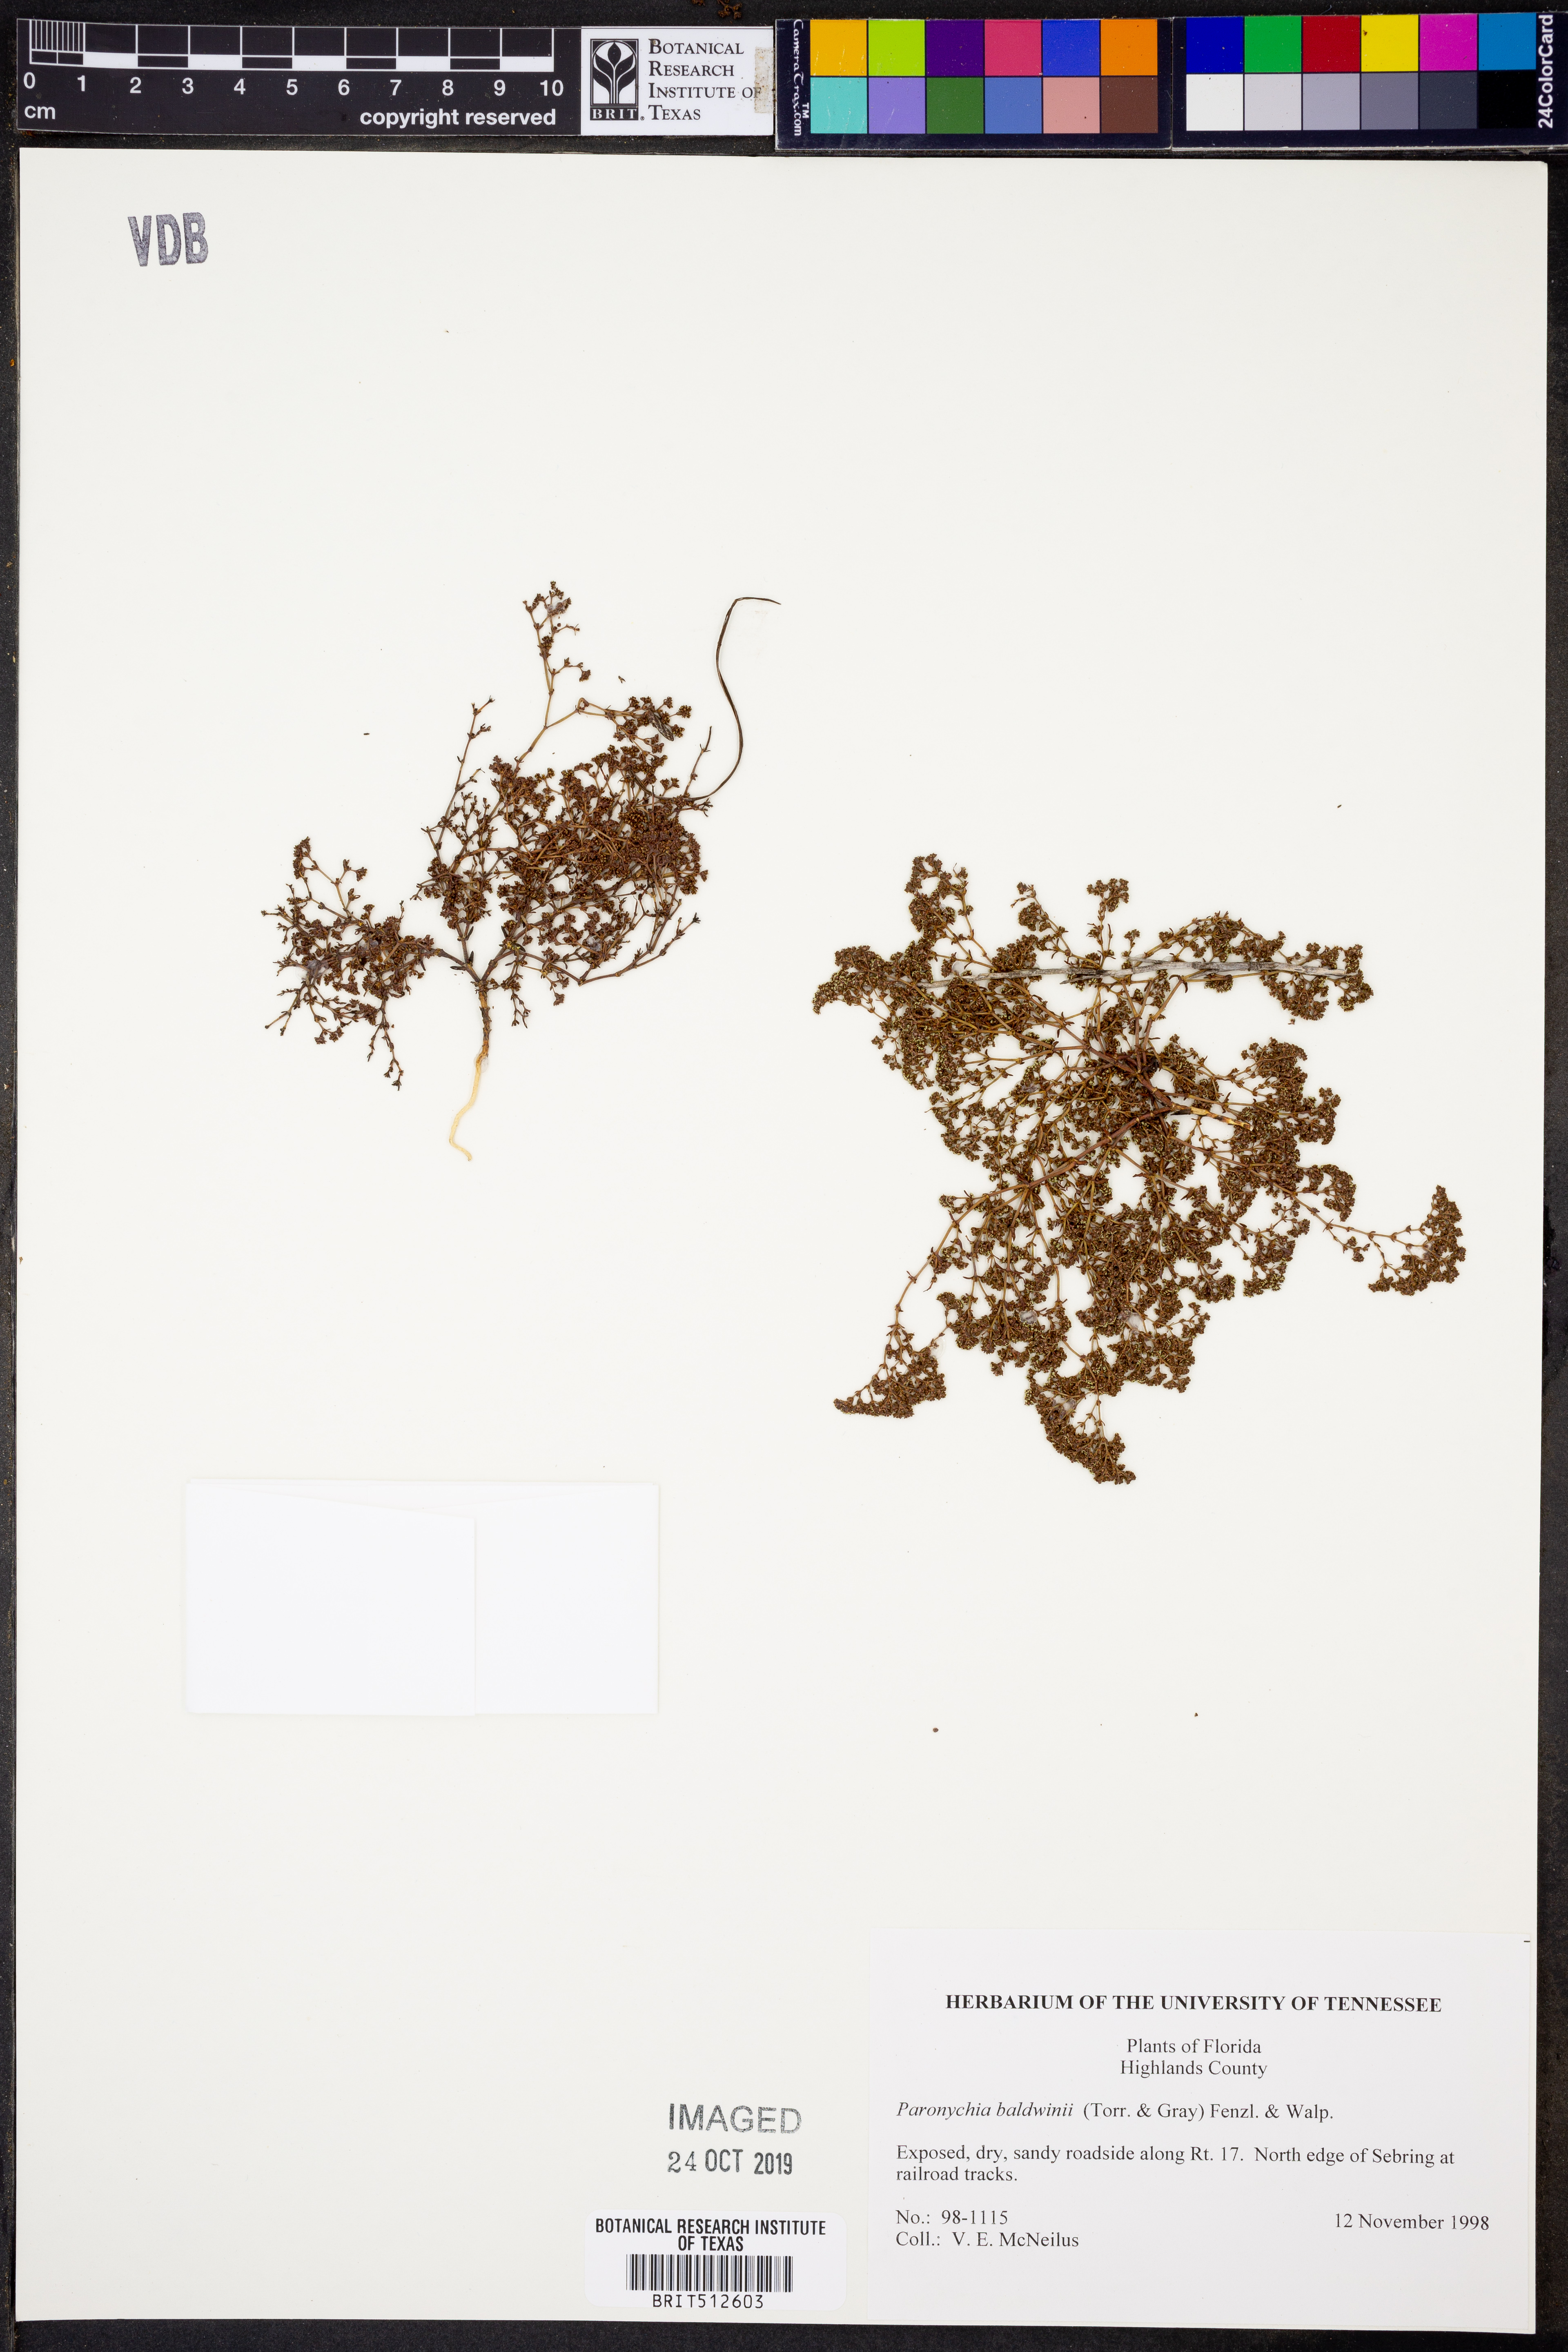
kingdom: Plantae
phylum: Tracheophyta
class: Magnoliopsida
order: Caryophyllales
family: Caryophyllaceae
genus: Paronychia
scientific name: Paronychia baldwinii
